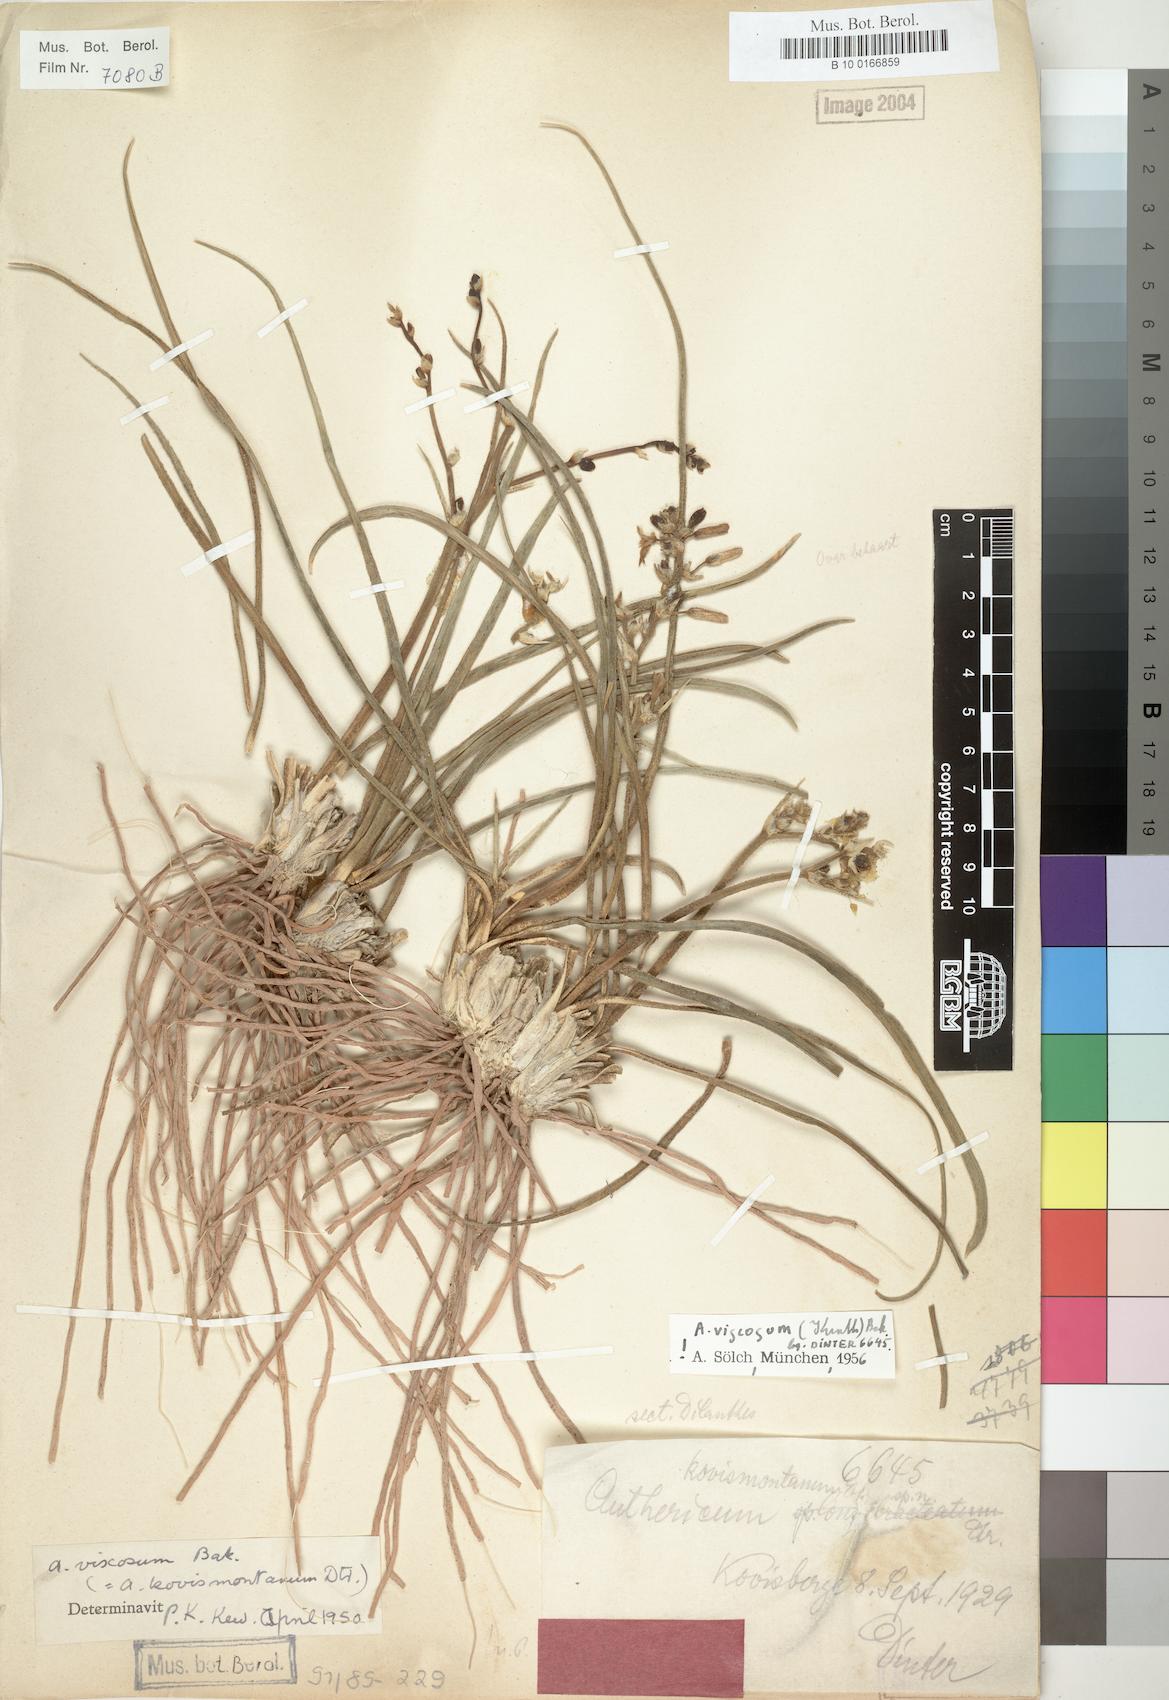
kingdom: Plantae
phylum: Tracheophyta
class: Liliopsida
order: Asparagales
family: Asparagaceae
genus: Chlorophytum
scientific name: Chlorophytum viscosum
